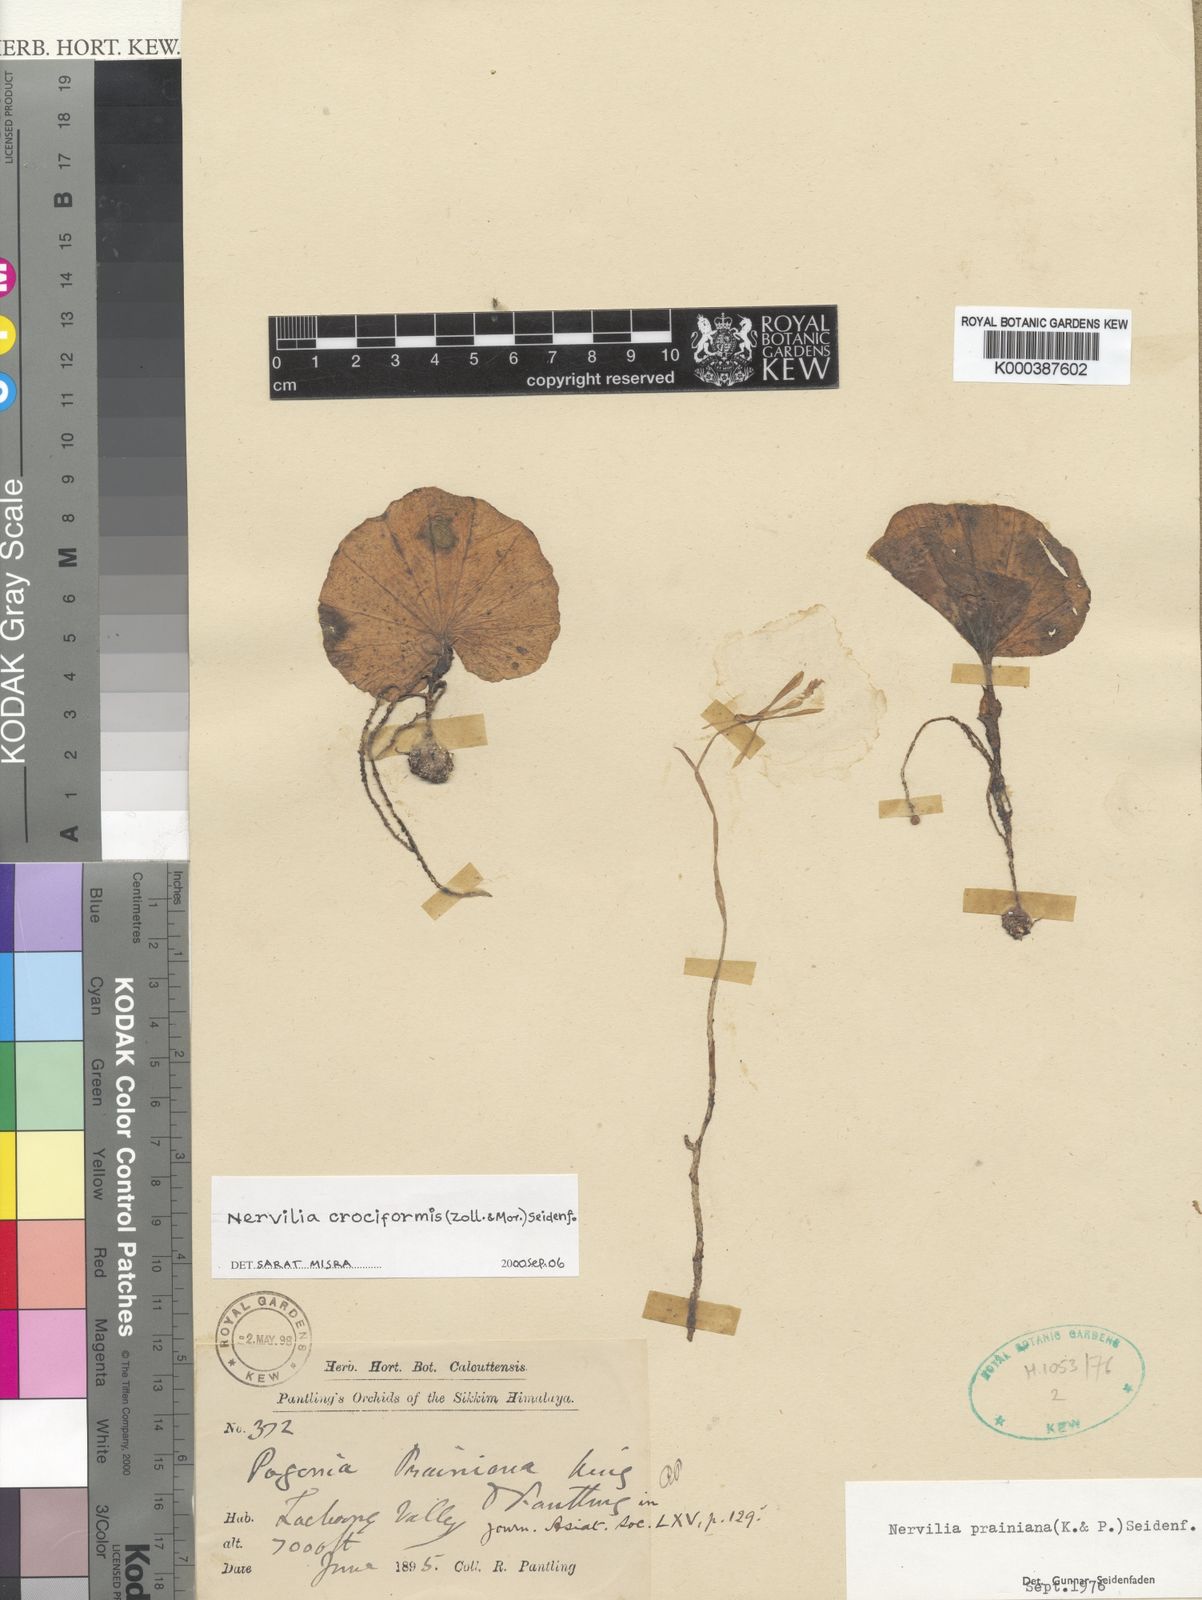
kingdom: Plantae
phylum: Tracheophyta
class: Liliopsida
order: Asparagales
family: Orchidaceae
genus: Nervilia
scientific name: Nervilia simplex
